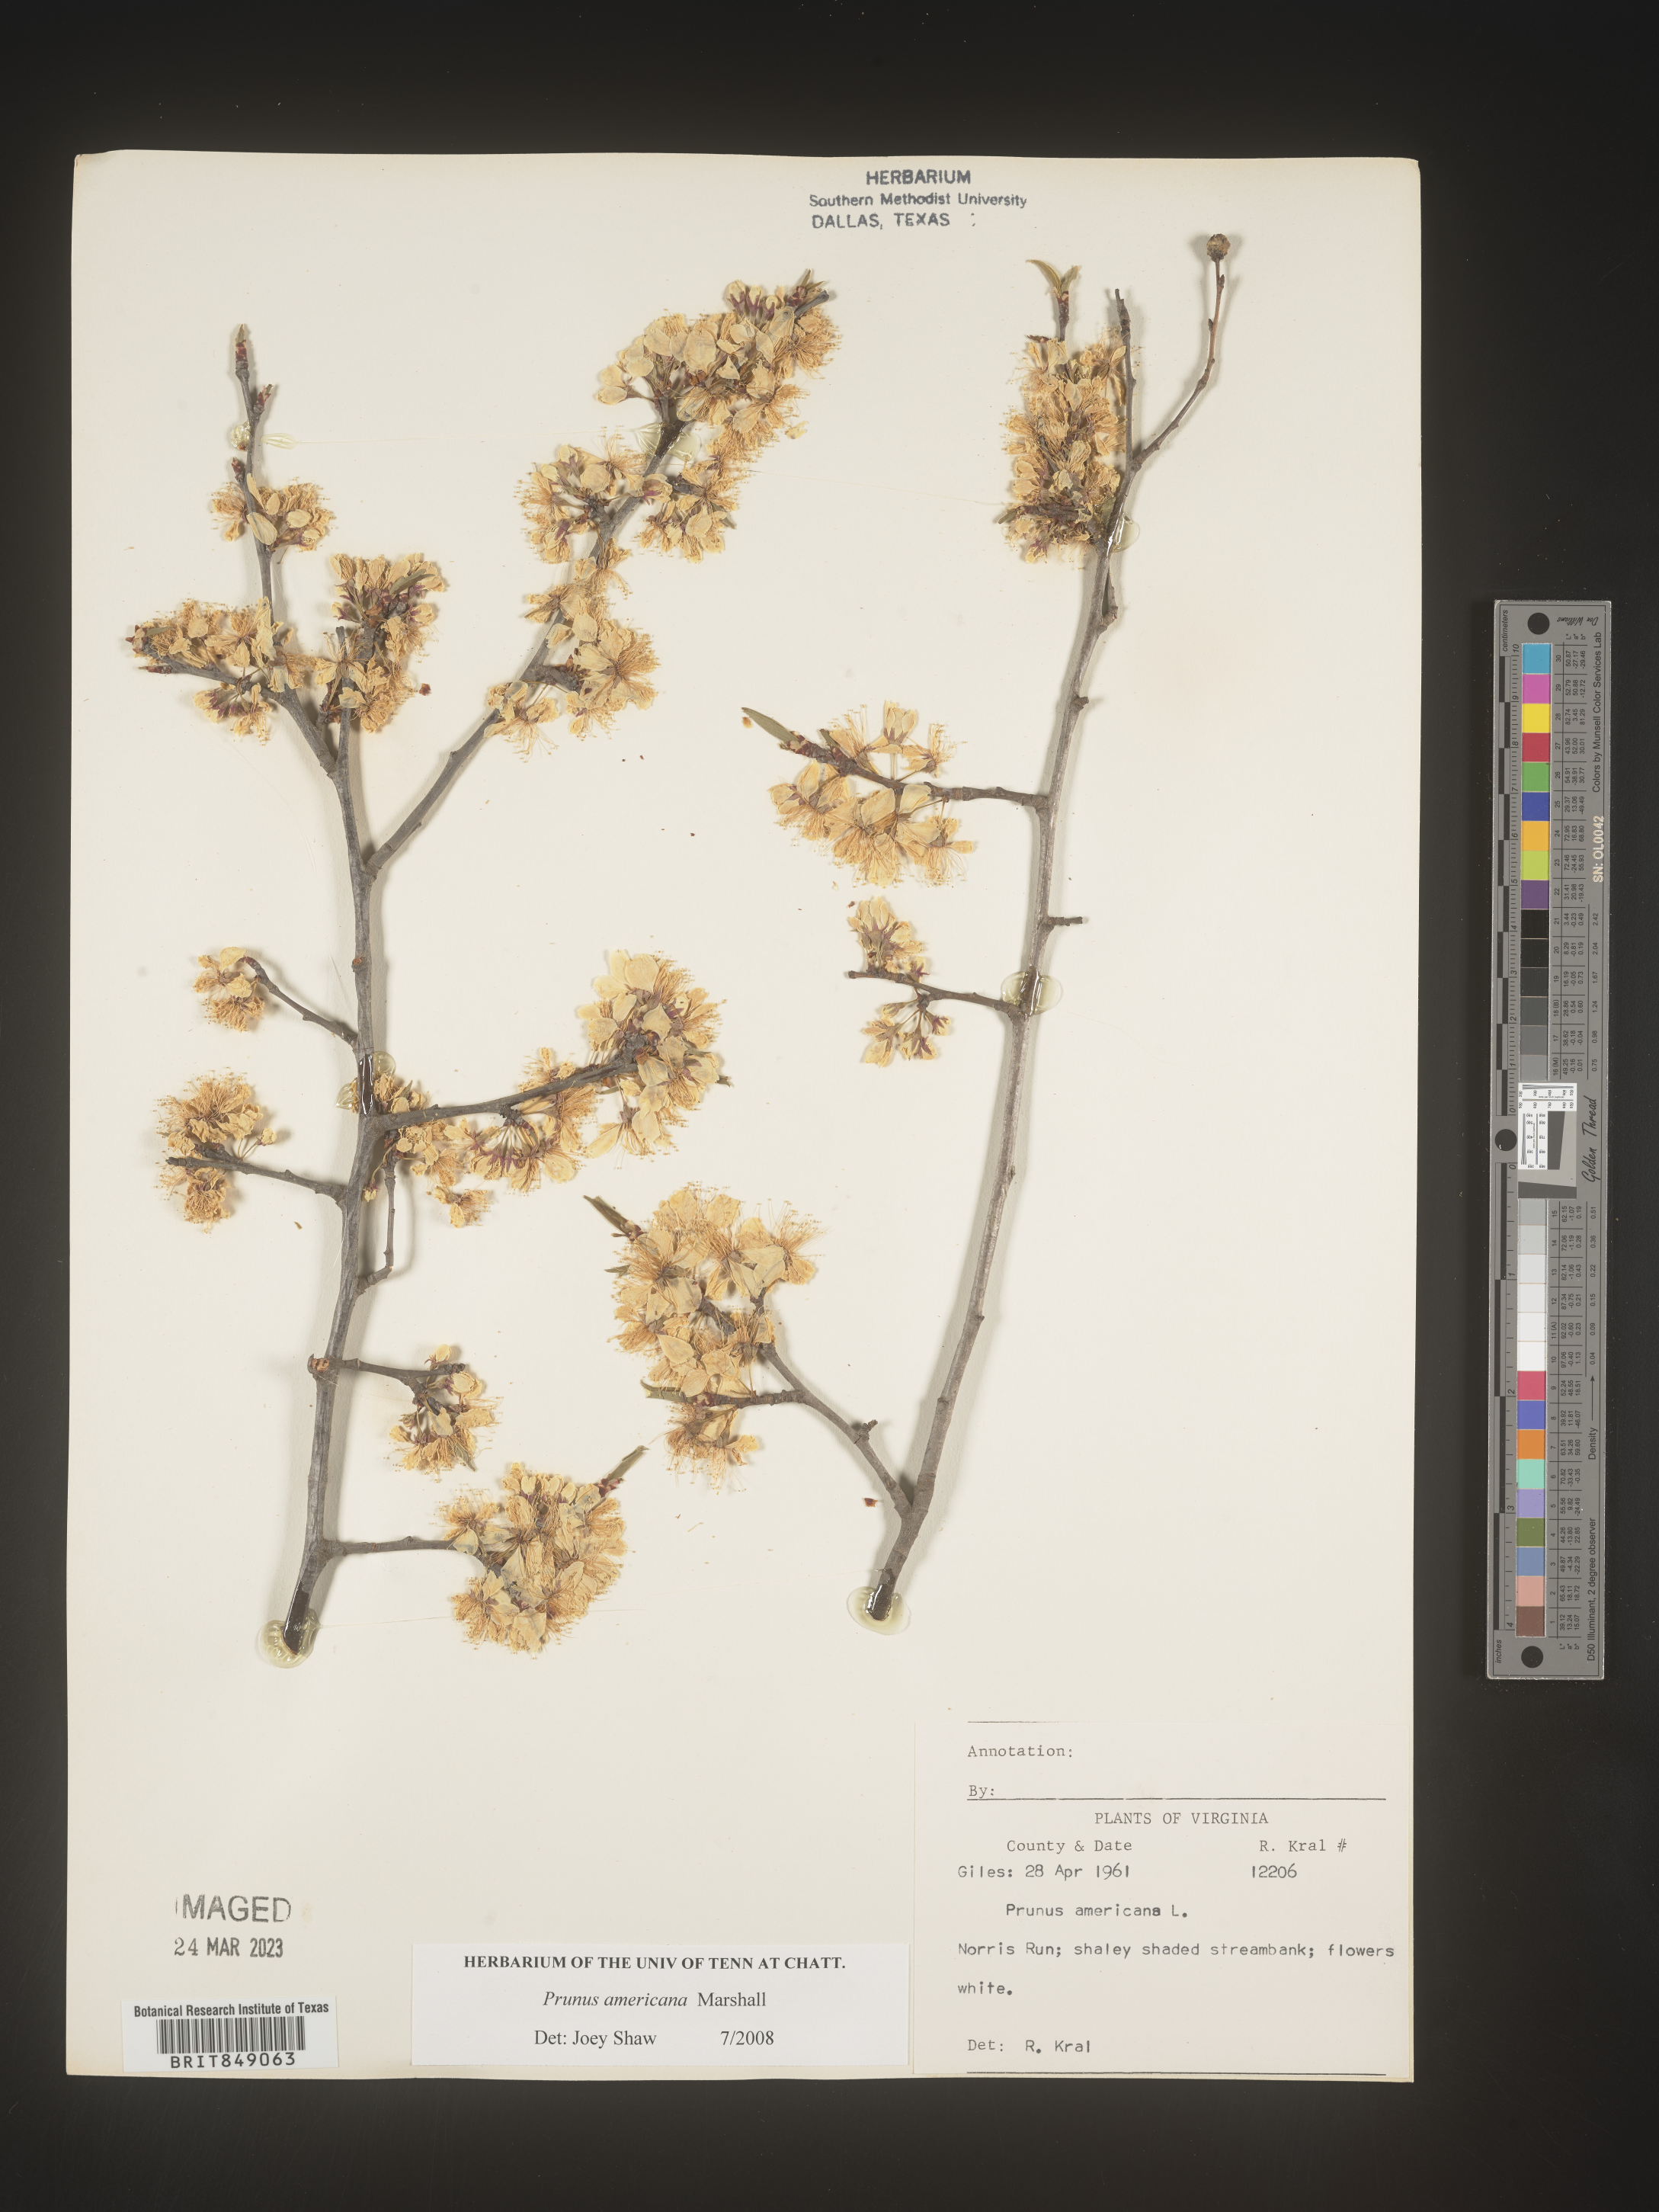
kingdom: Plantae
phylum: Tracheophyta
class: Magnoliopsida
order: Rosales
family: Rosaceae
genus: Prunus
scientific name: Prunus americana
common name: American plum
